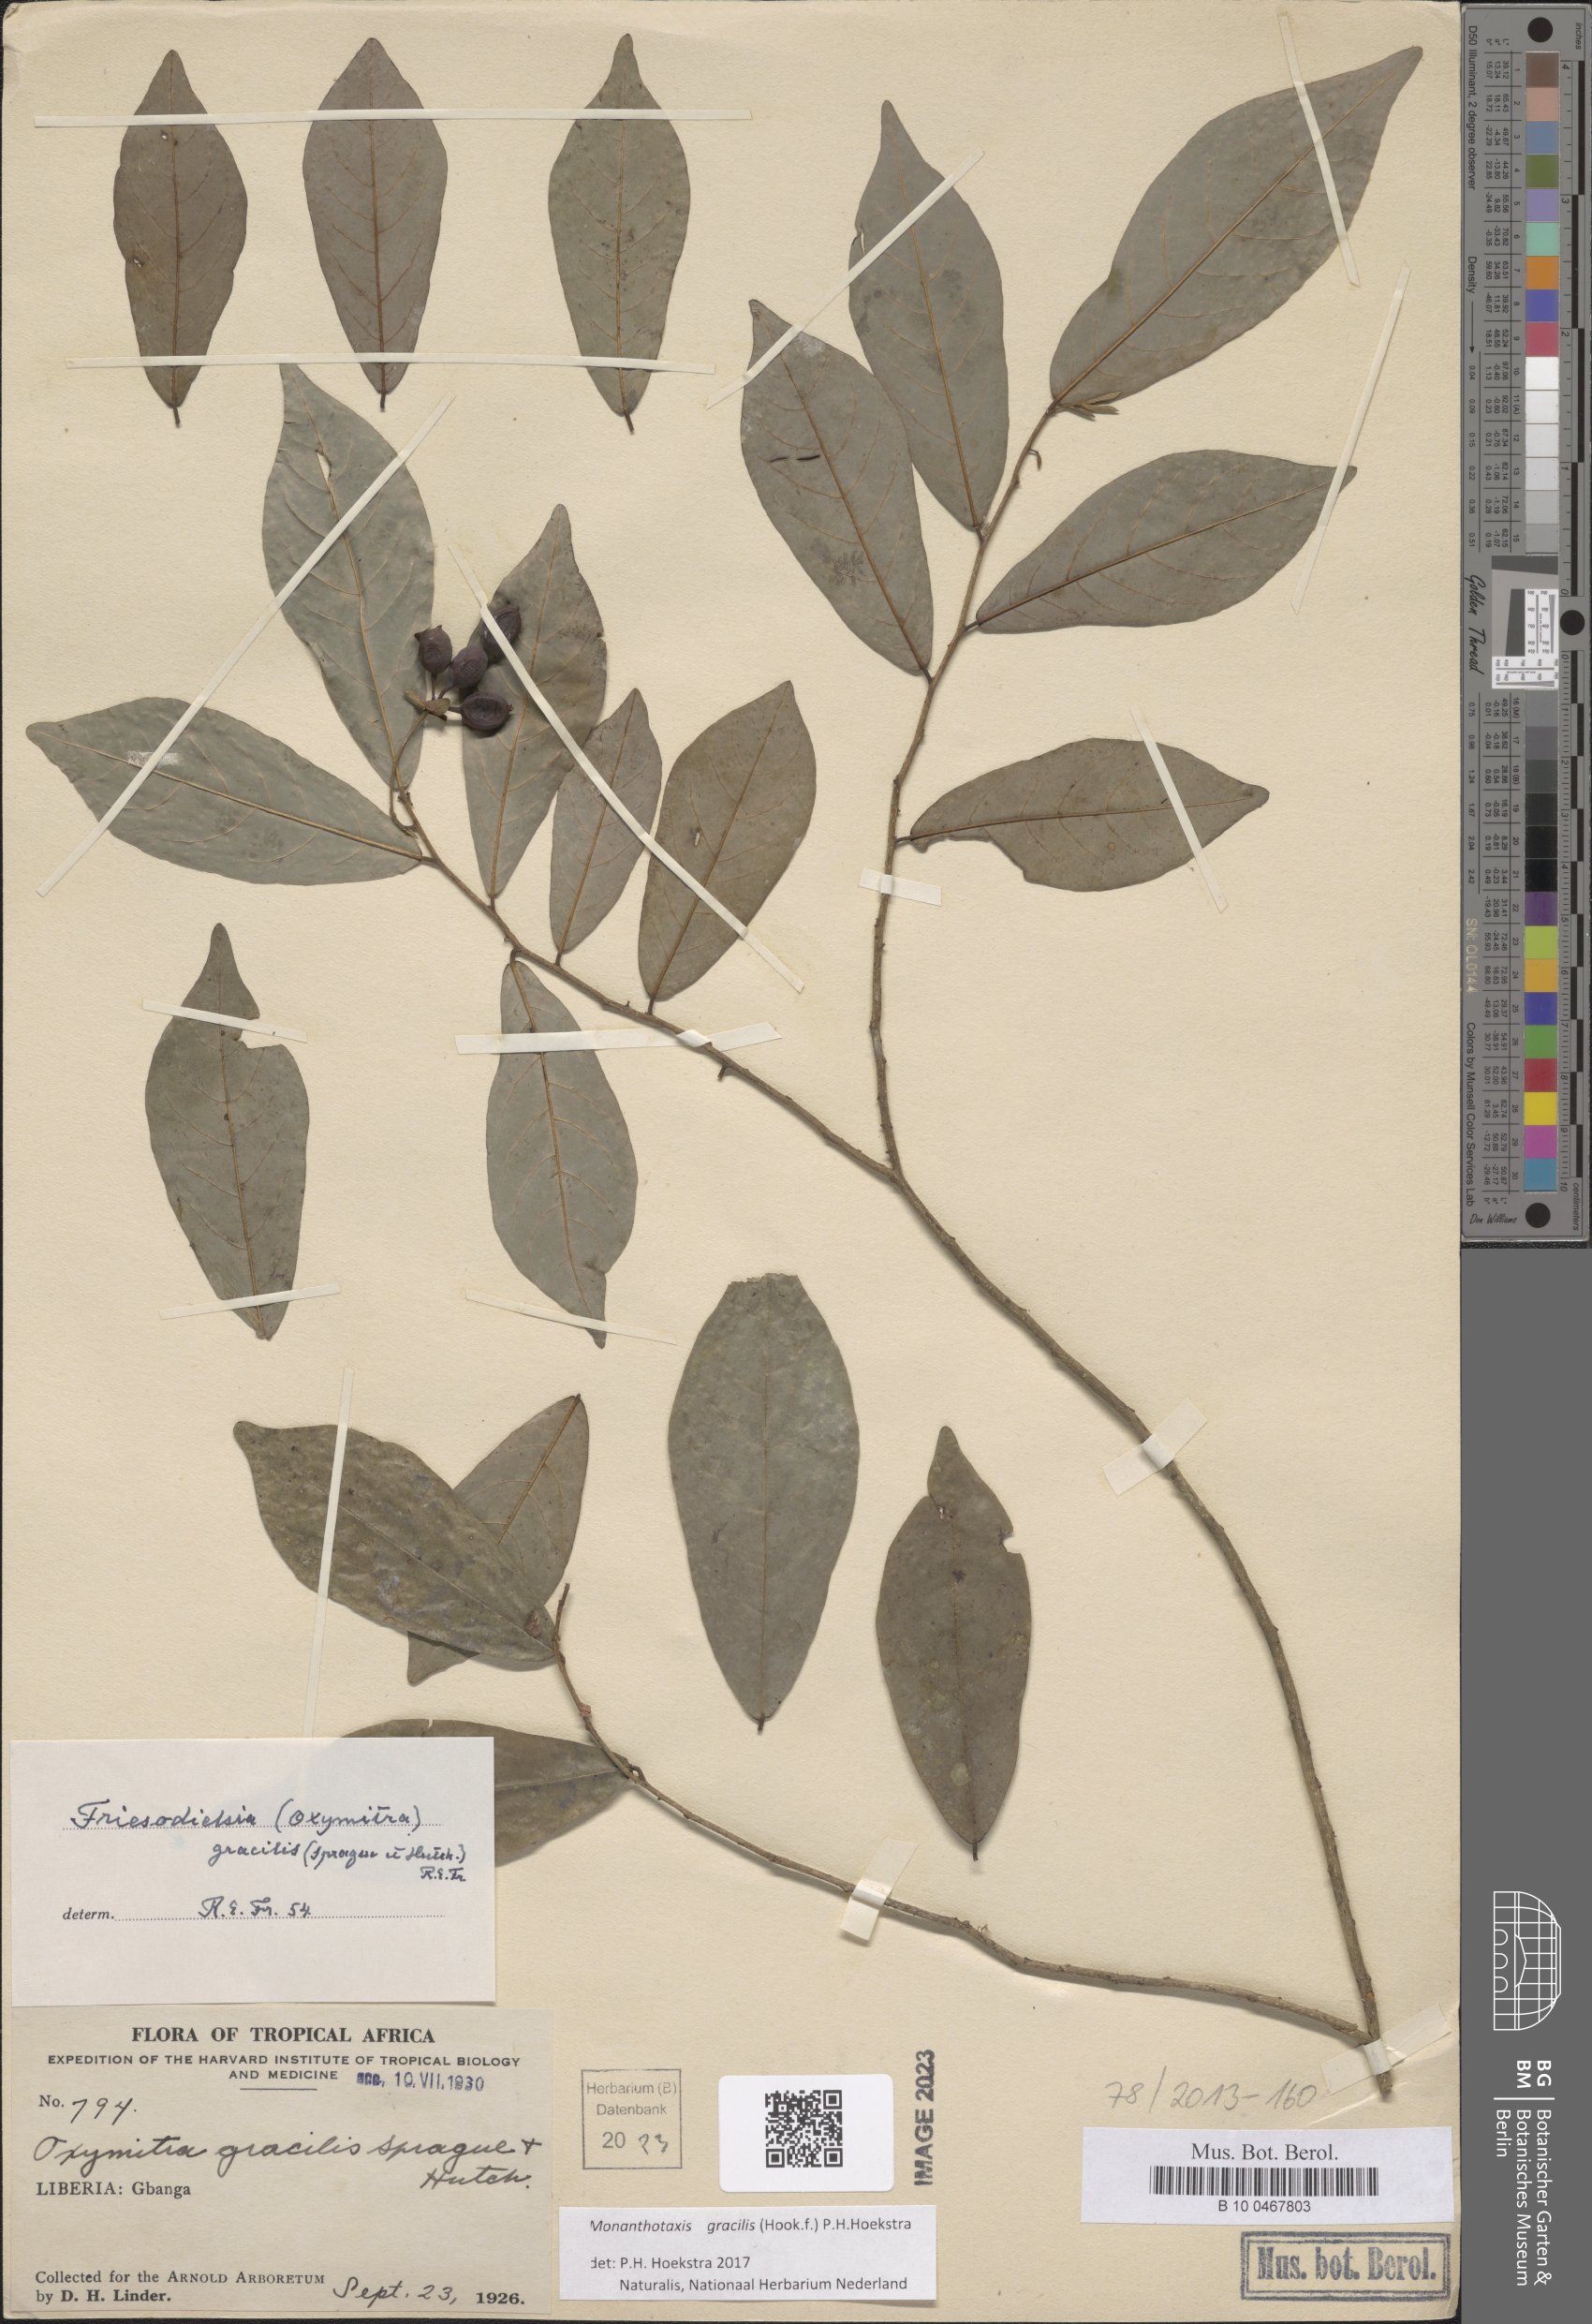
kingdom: Plantae
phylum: Tracheophyta
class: Magnoliopsida
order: Magnoliales
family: Annonaceae
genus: Friesodielsia
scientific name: Friesodielsia gracilis
